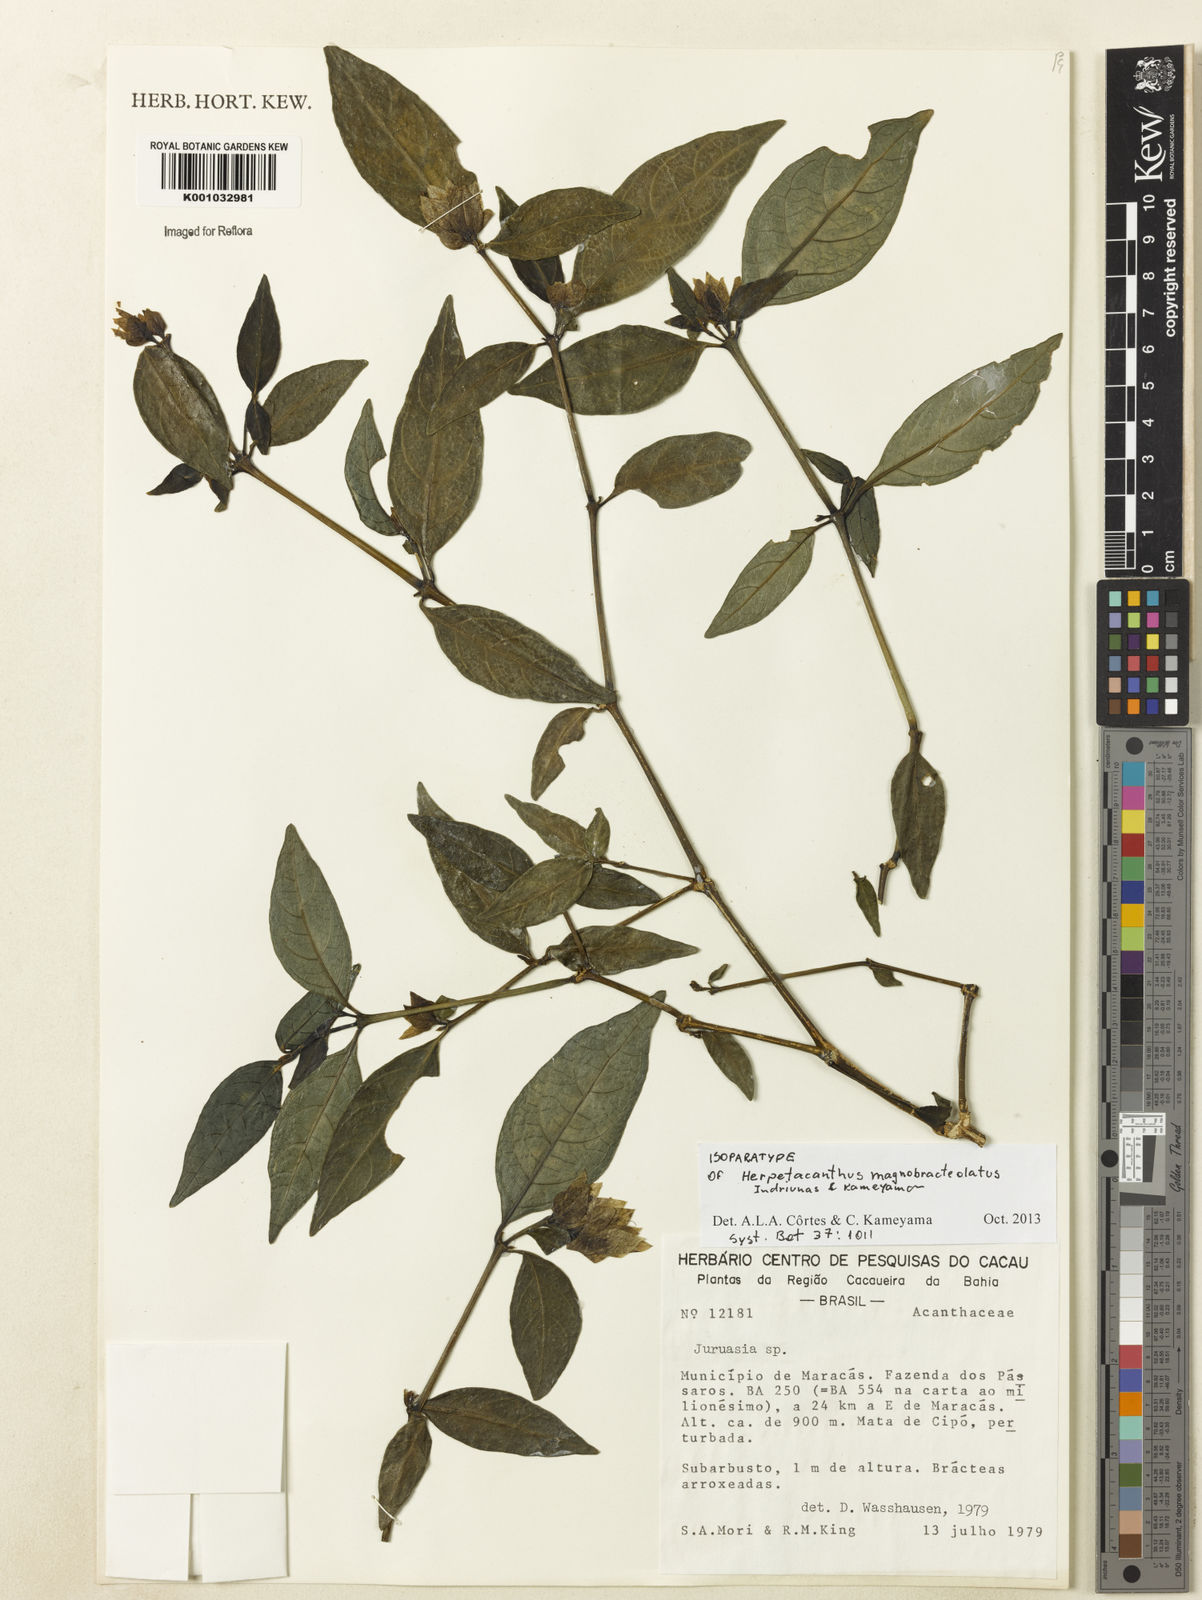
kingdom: Plantae
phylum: Tracheophyta
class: Magnoliopsida
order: Lamiales
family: Acanthaceae
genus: Herpetacanthus
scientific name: Herpetacanthus magnobracteolatus
